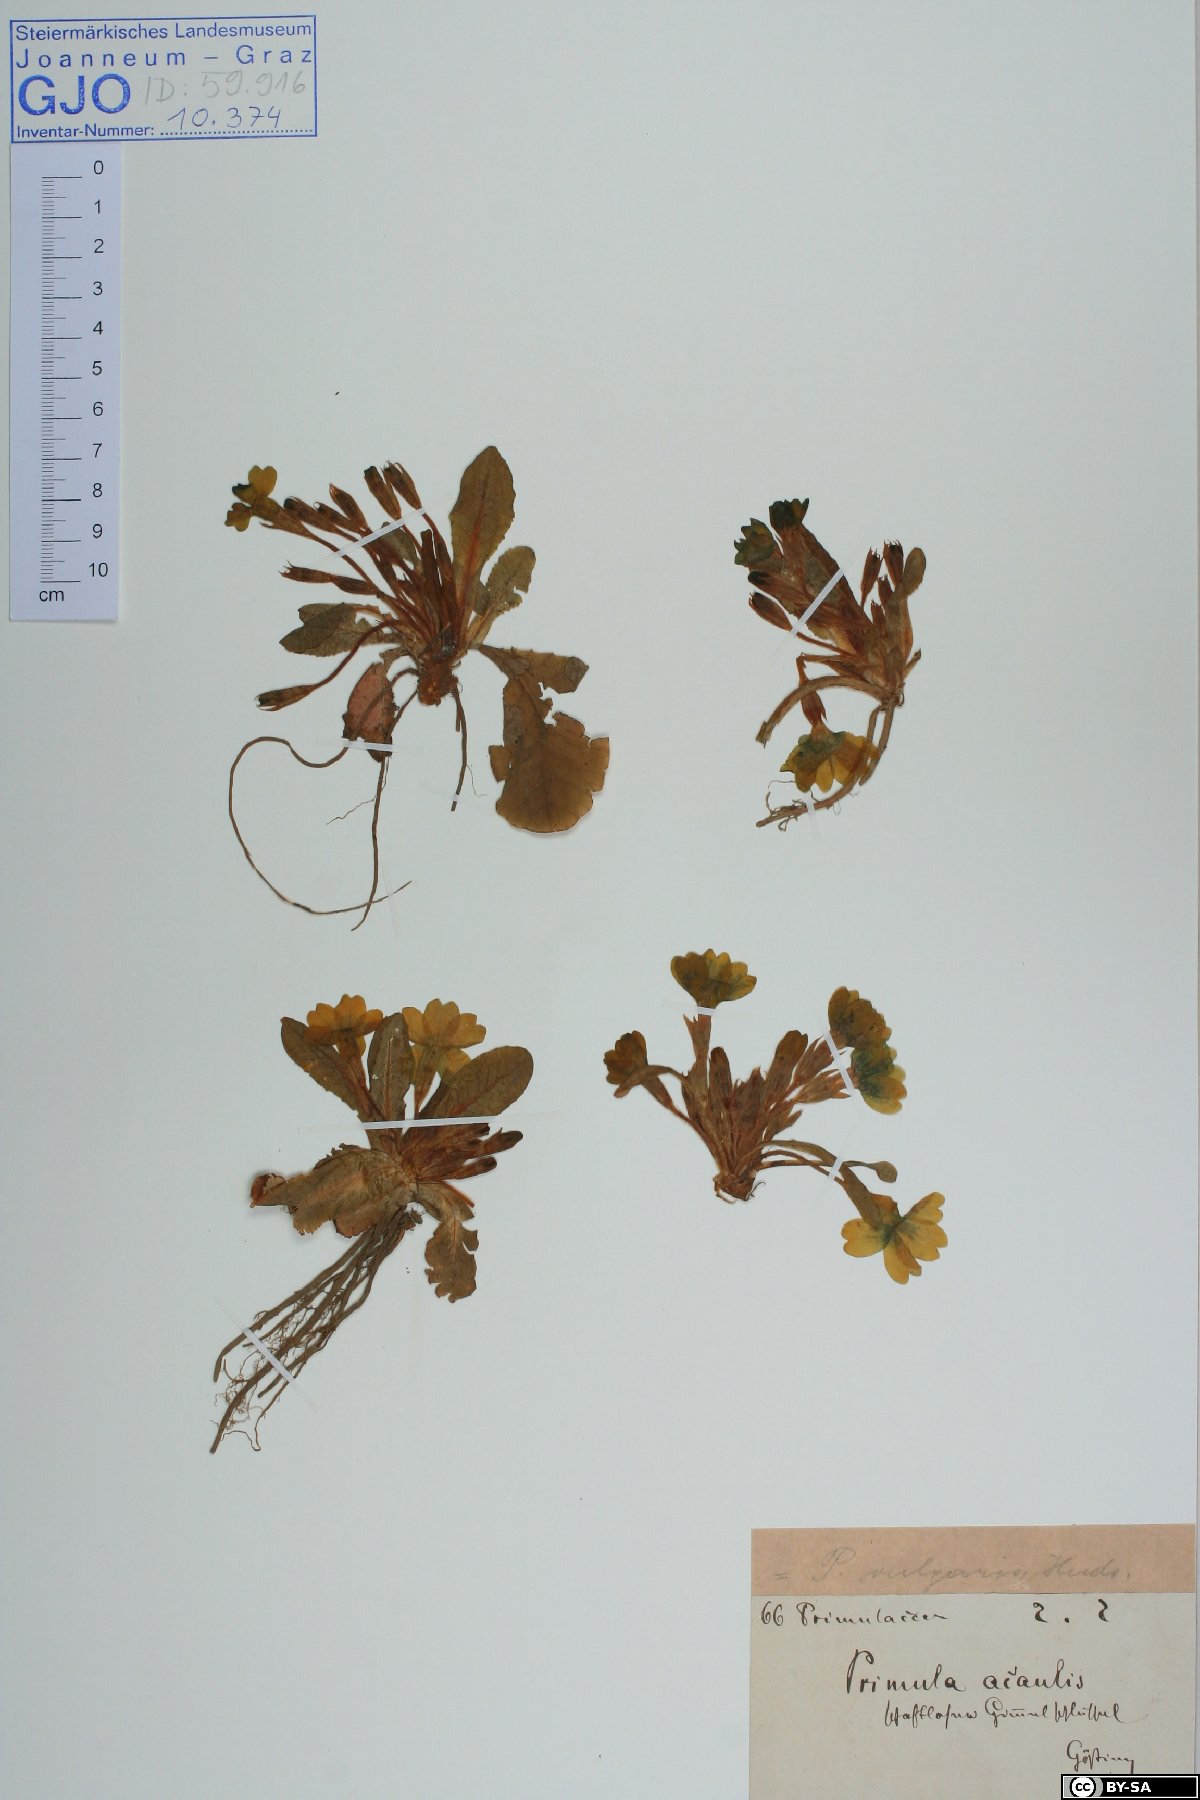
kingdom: Plantae
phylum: Tracheophyta
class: Magnoliopsida
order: Ericales
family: Primulaceae
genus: Primula
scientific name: Primula vulgaris
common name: Primrose
